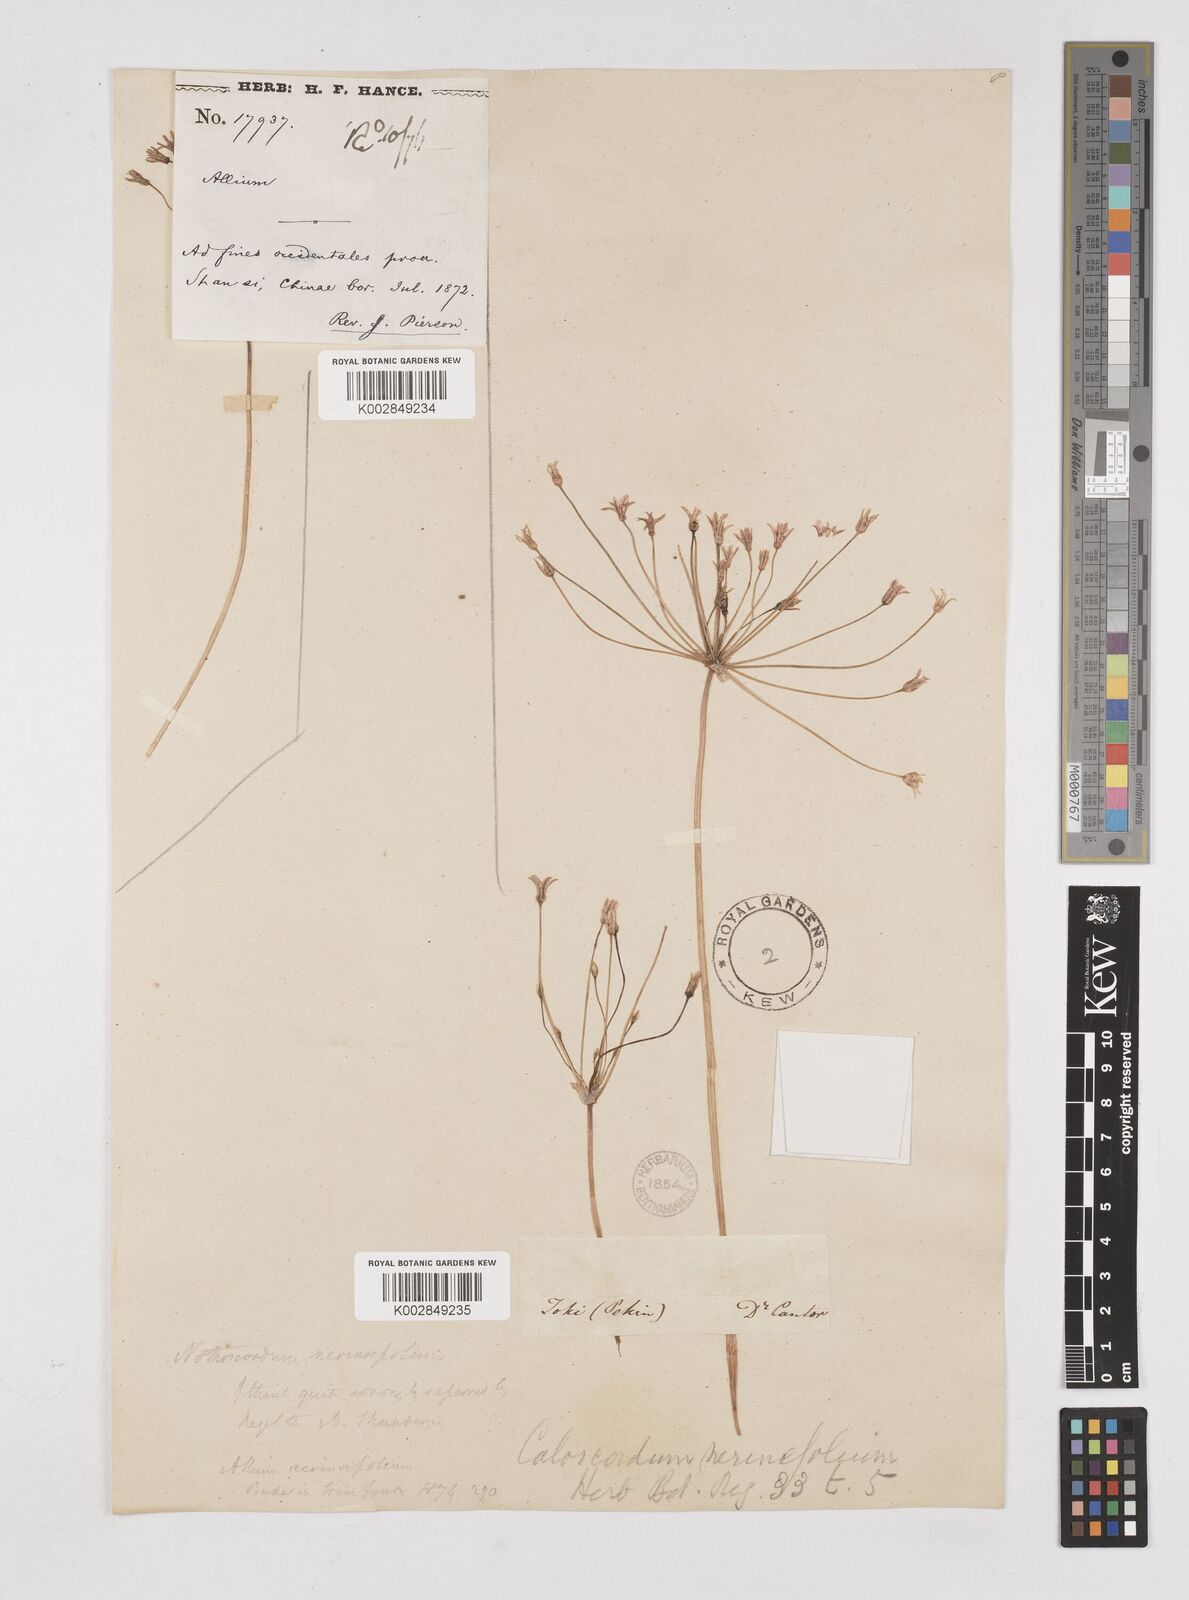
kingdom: Plantae
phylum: Tracheophyta
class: Liliopsida
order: Liliales
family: Liliaceae
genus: Agapanthus
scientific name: Agapanthus
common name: Agapanthus
